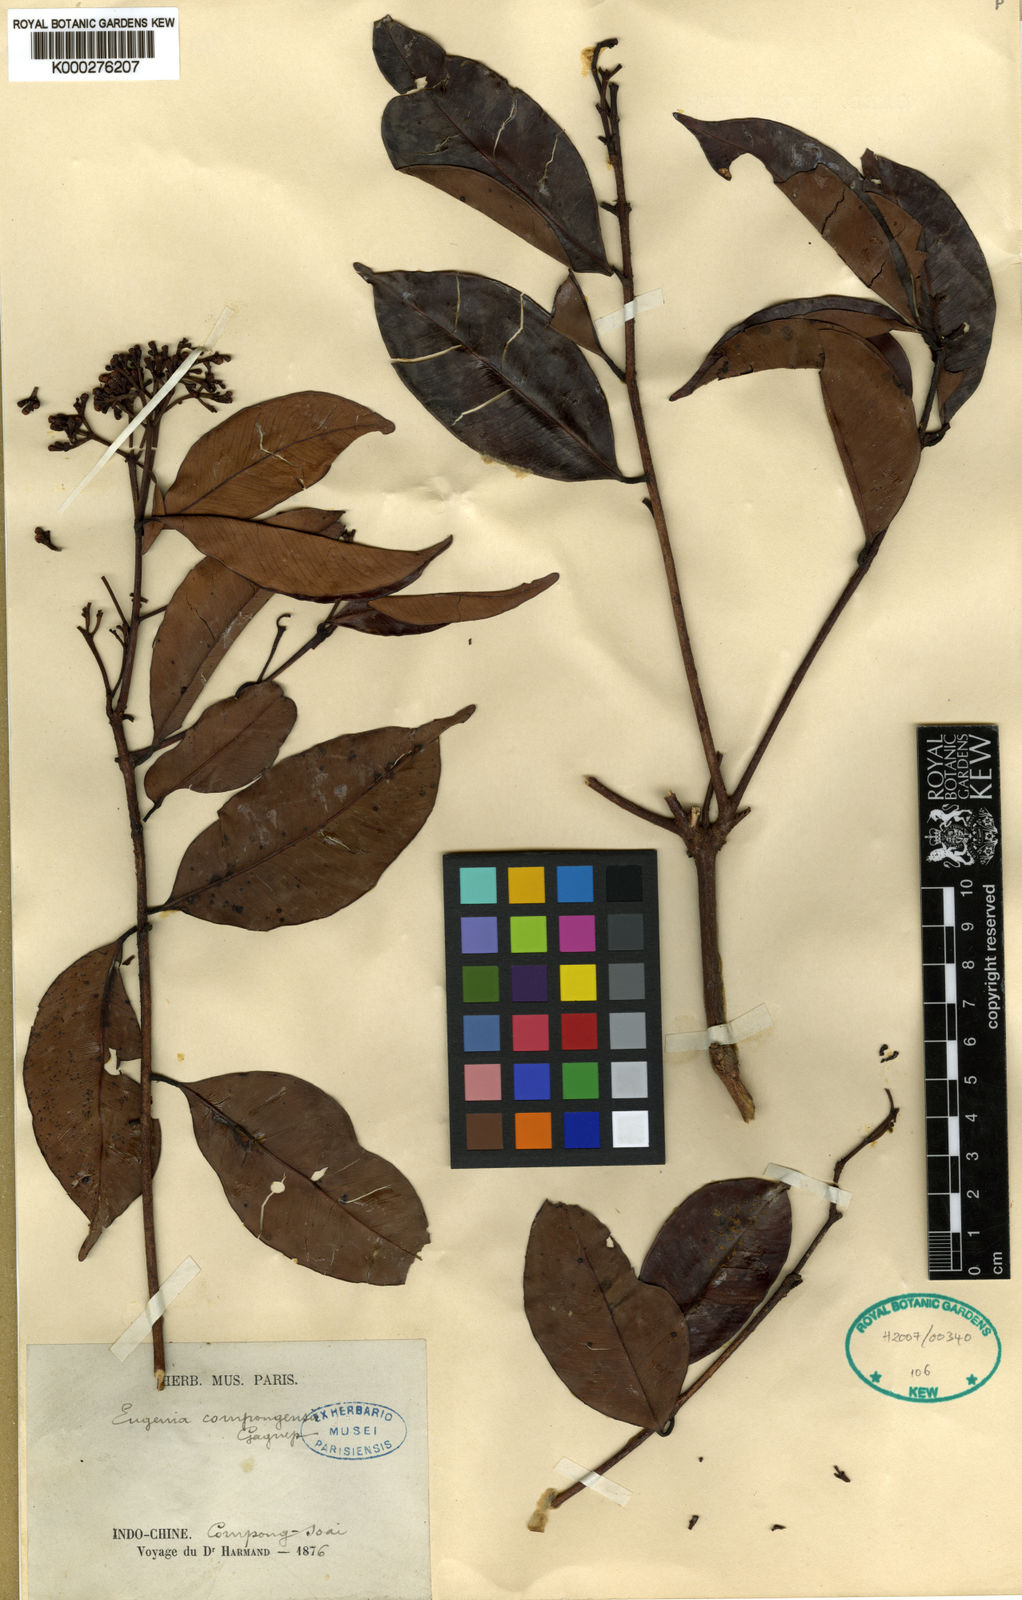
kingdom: Plantae
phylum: Tracheophyta
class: Magnoliopsida
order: Myrtales
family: Myrtaceae
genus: Syzygium
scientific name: Syzygium
